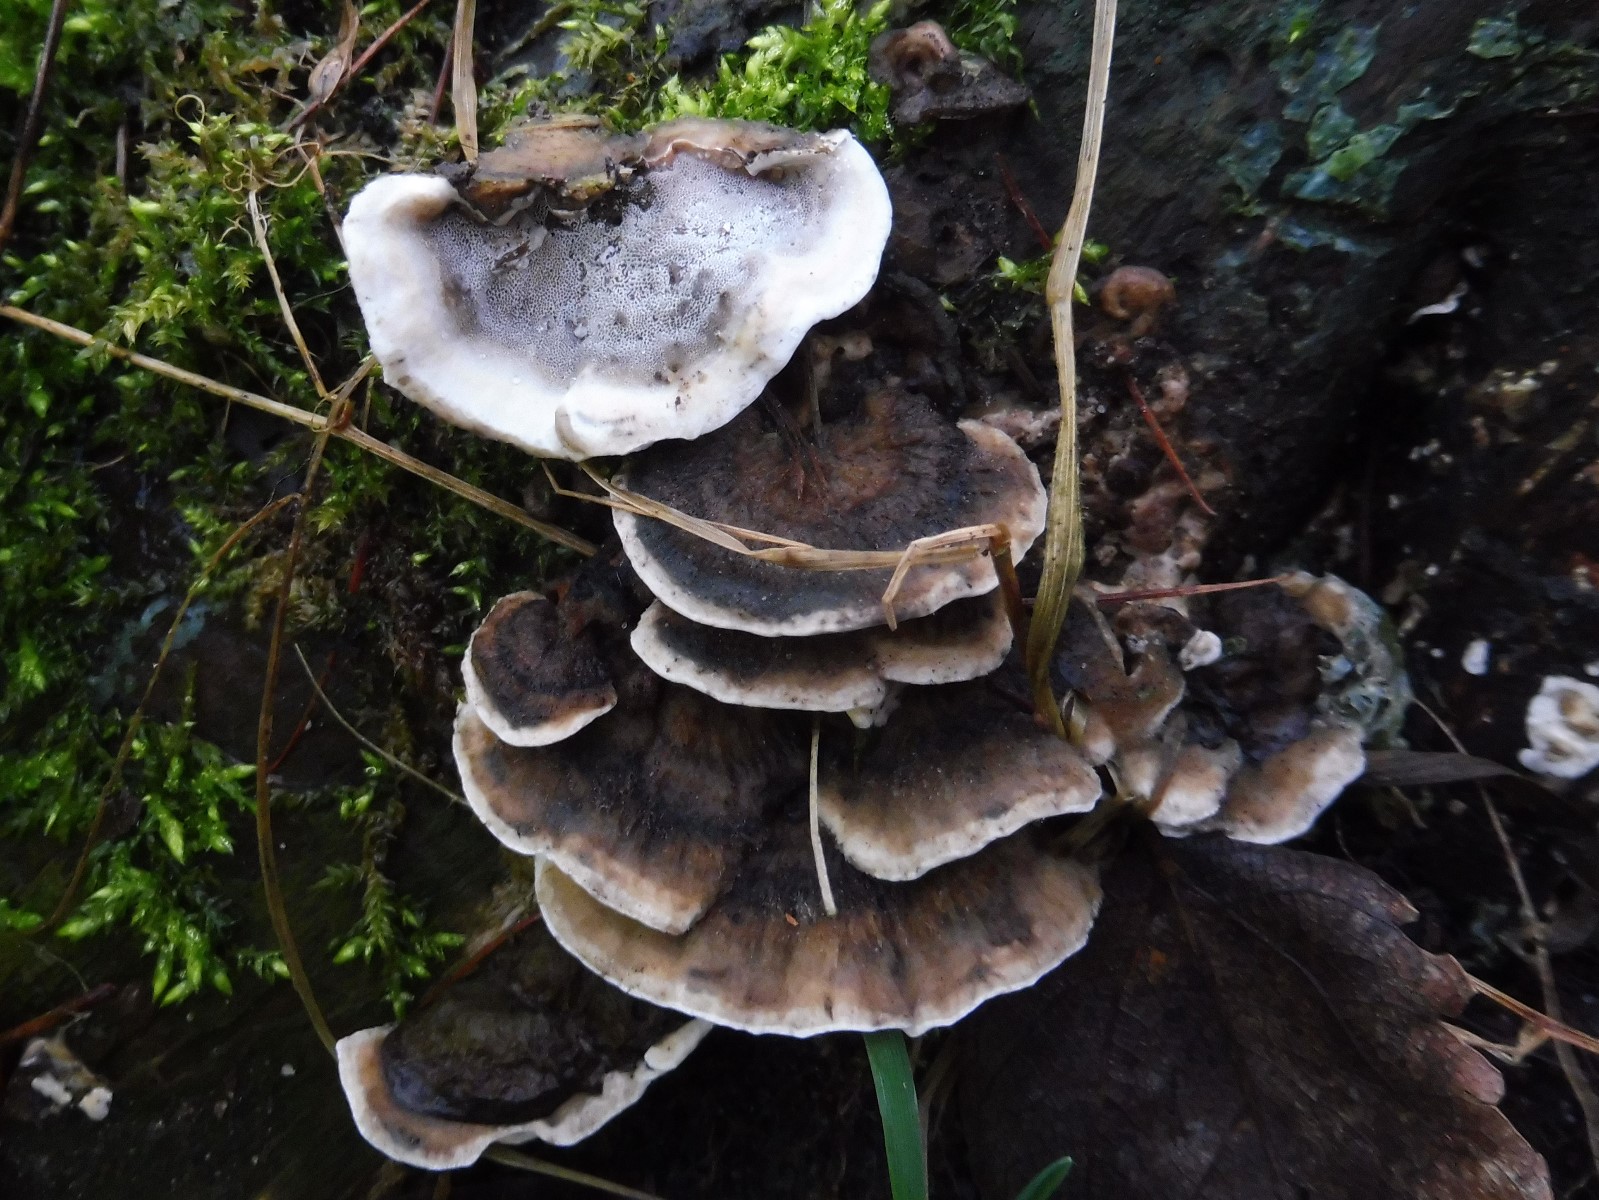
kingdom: Fungi
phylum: Basidiomycota
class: Agaricomycetes
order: Polyporales
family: Phanerochaetaceae
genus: Bjerkandera
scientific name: Bjerkandera adusta
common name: sveden sodporesvamp
